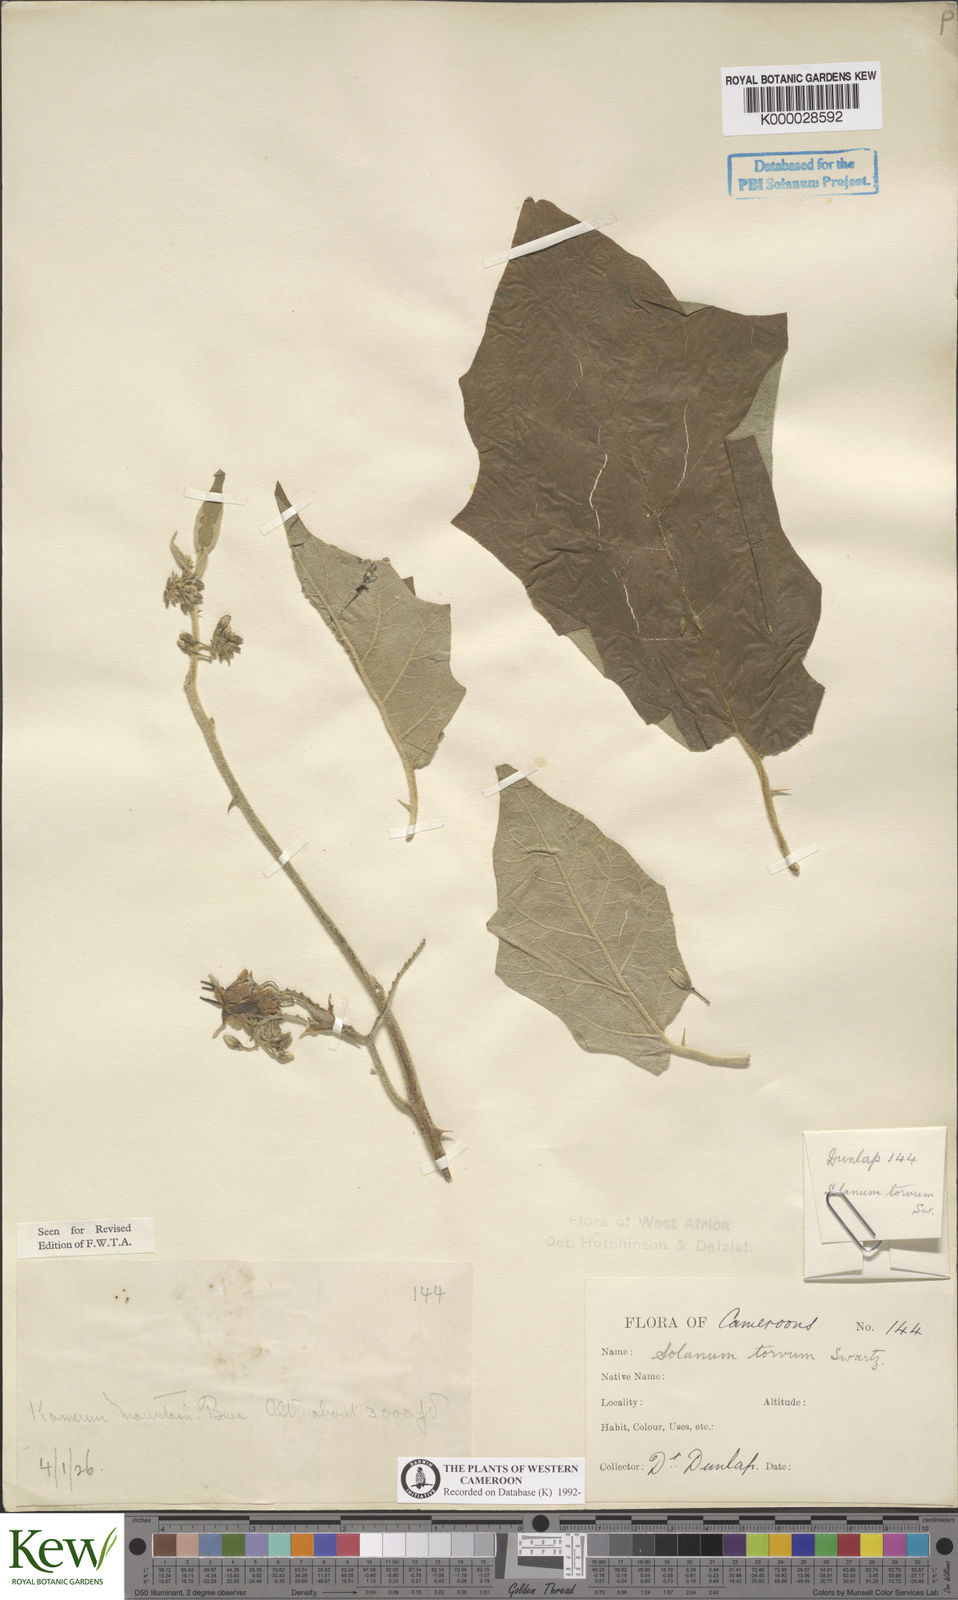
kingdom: Plantae
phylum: Tracheophyta
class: Magnoliopsida
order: Solanales
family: Solanaceae
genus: Solanum
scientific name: Solanum torvum
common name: Turkey berry
